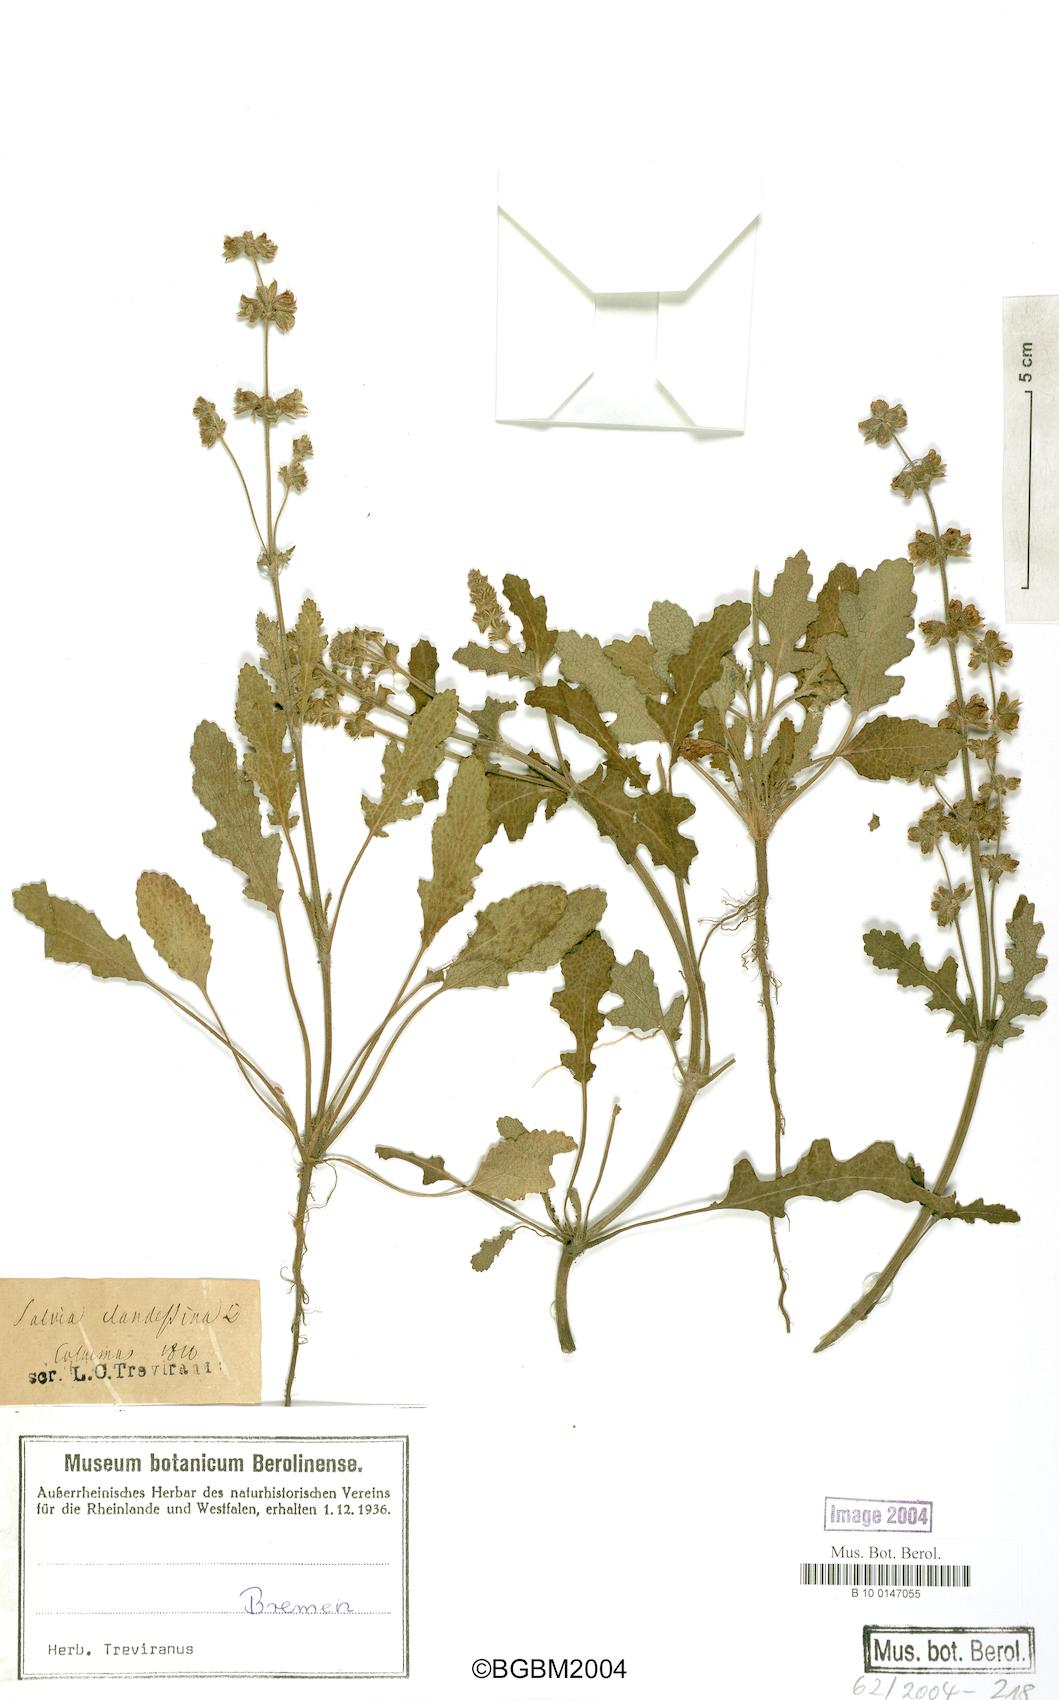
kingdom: Plantae
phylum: Tracheophyta
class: Magnoliopsida
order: Lamiales
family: Lamiaceae
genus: Salvia
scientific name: Salvia clandestina
